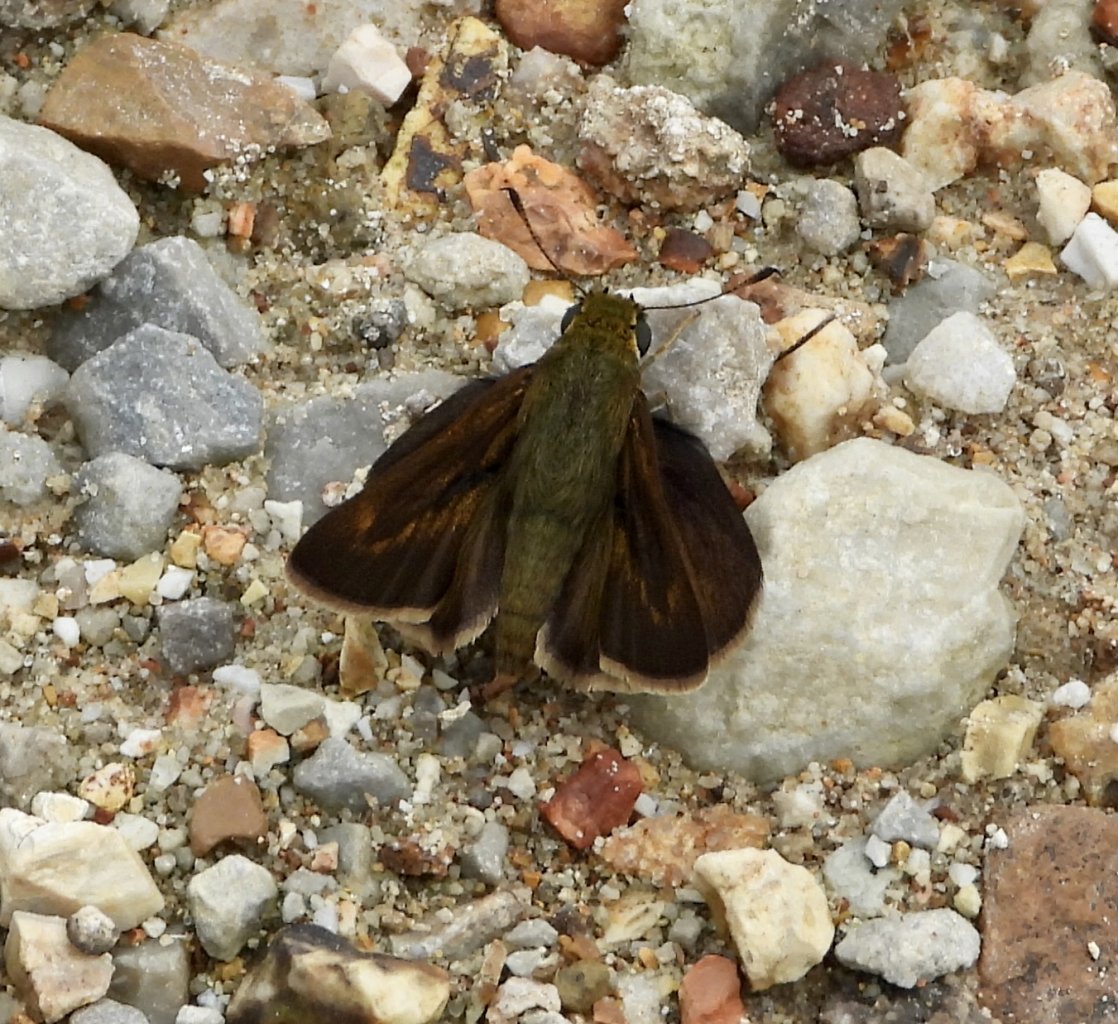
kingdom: Animalia
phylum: Arthropoda
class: Insecta
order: Lepidoptera
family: Hesperiidae
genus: Euphyes
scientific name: Euphyes vestris
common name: Dun Skipper
